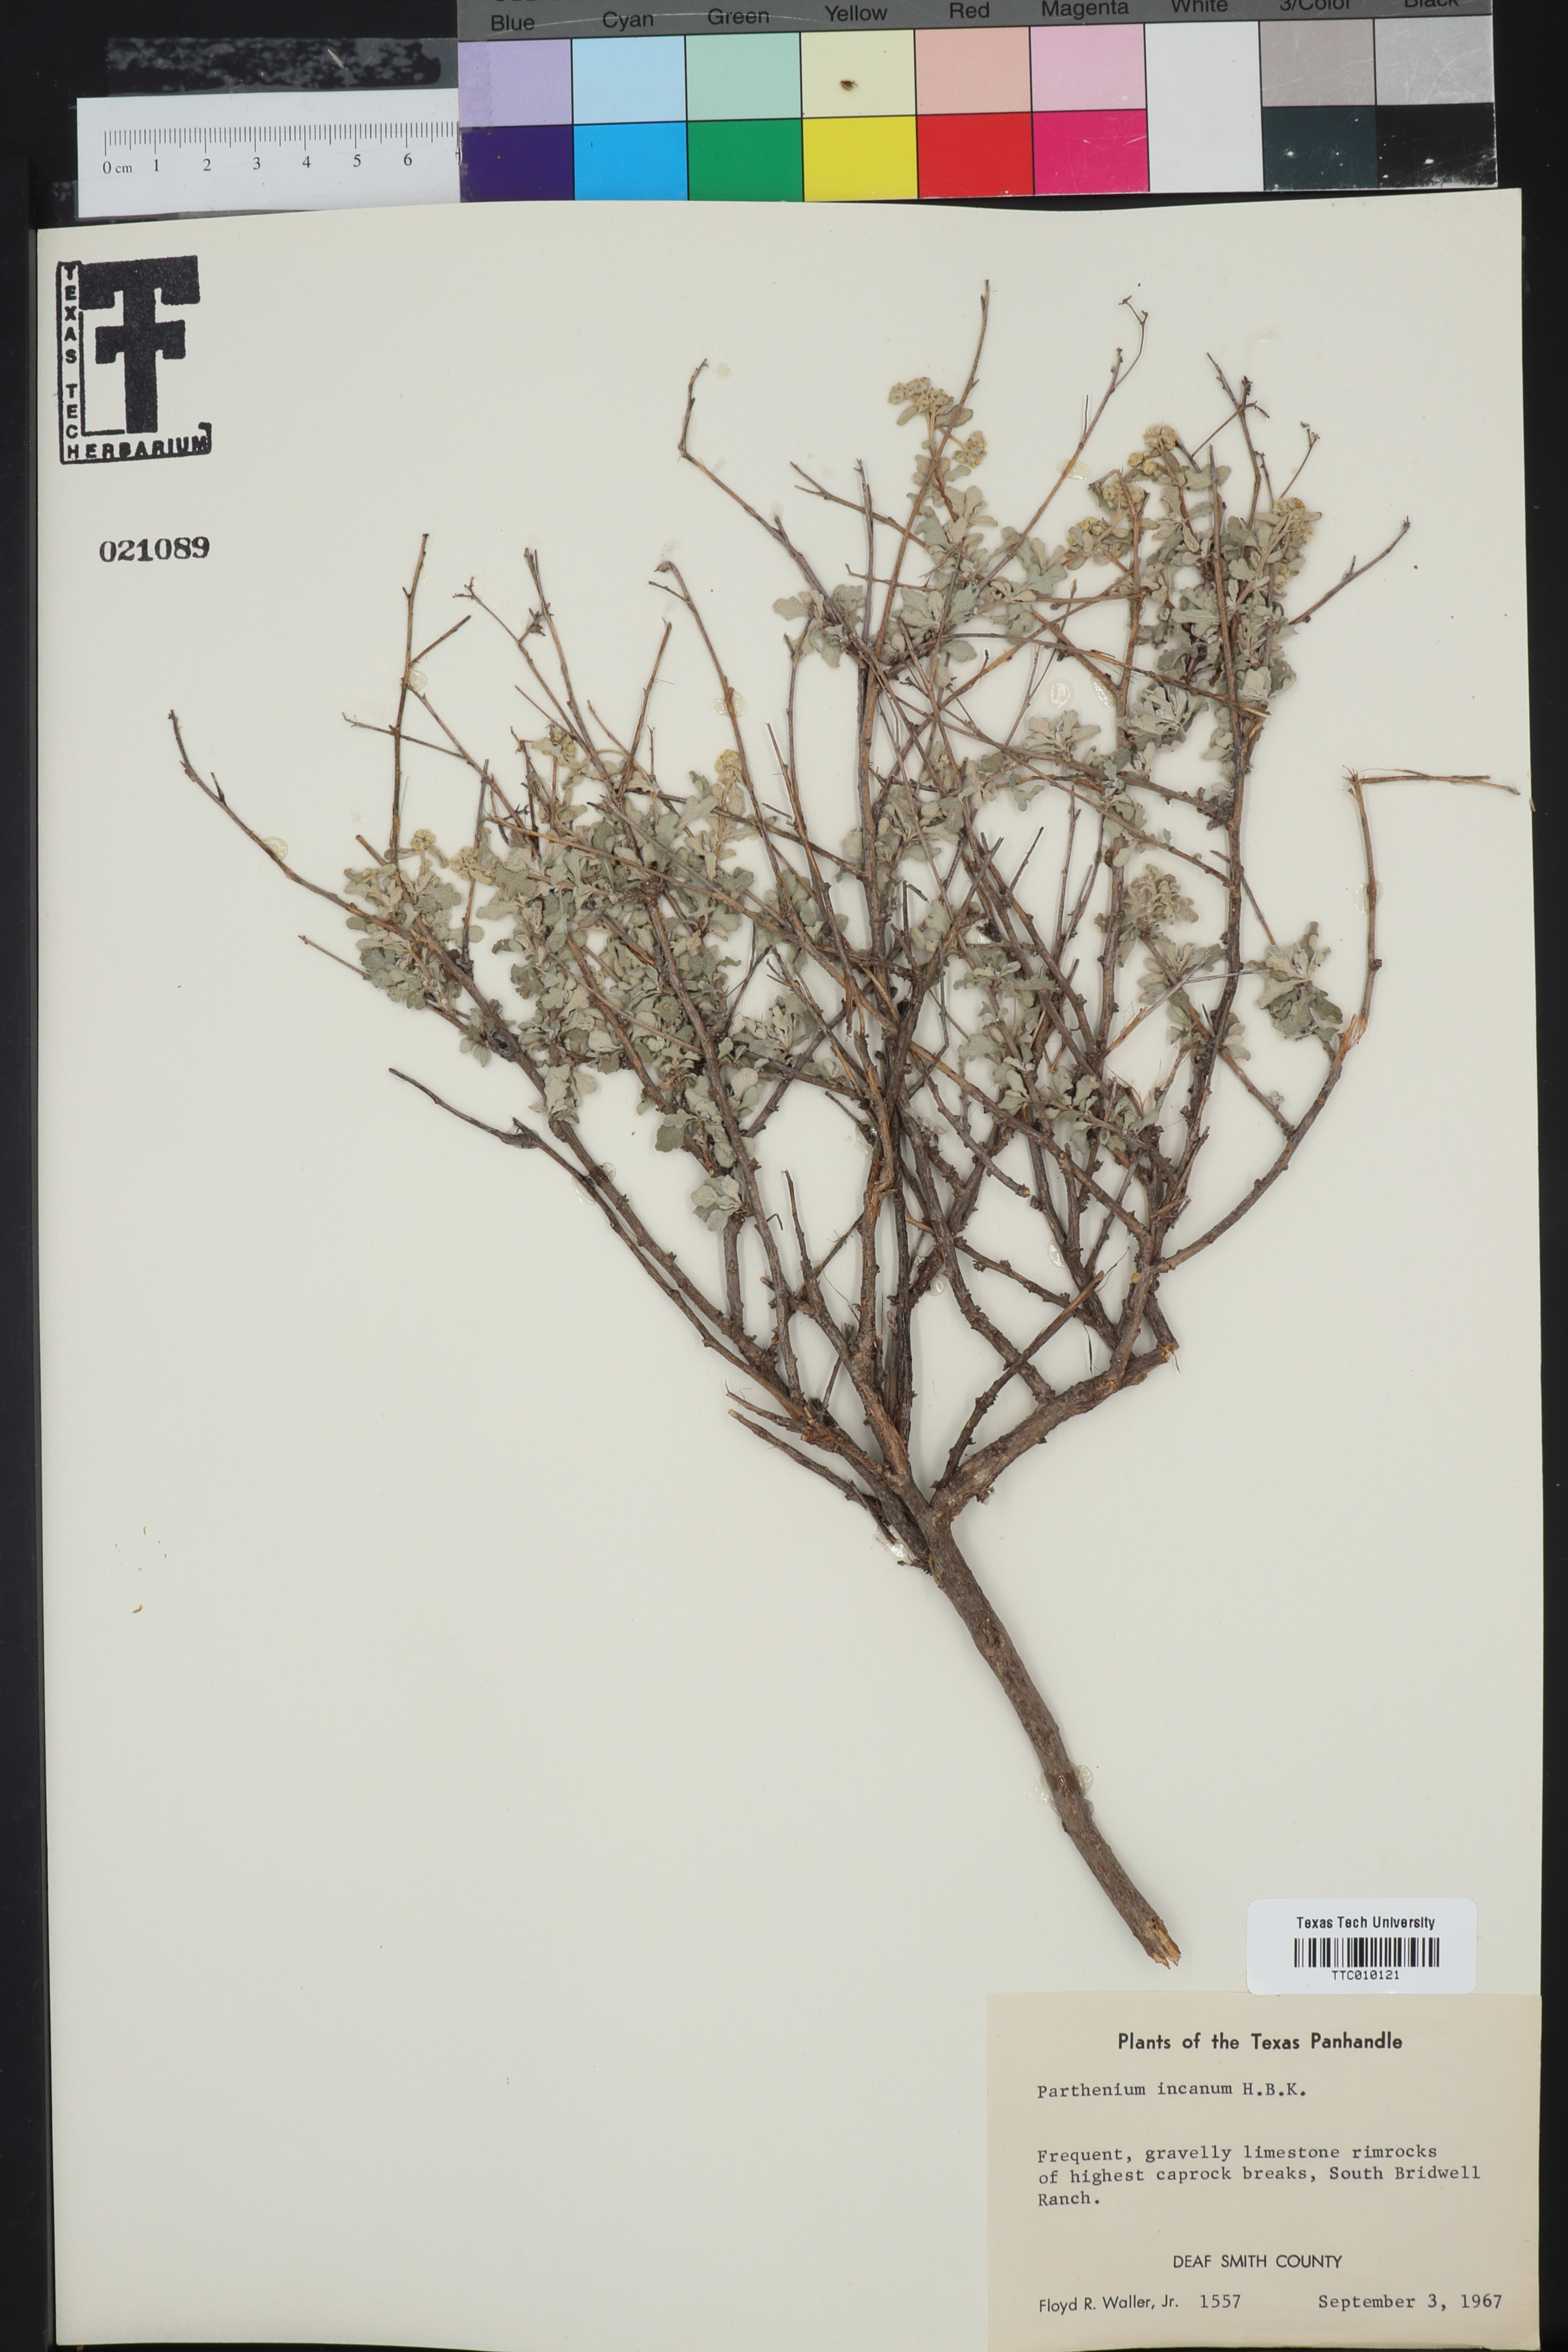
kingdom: Plantae
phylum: Tracheophyta
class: Magnoliopsida
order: Asterales
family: Asteraceae
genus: Parthenium
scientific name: Parthenium incanum
